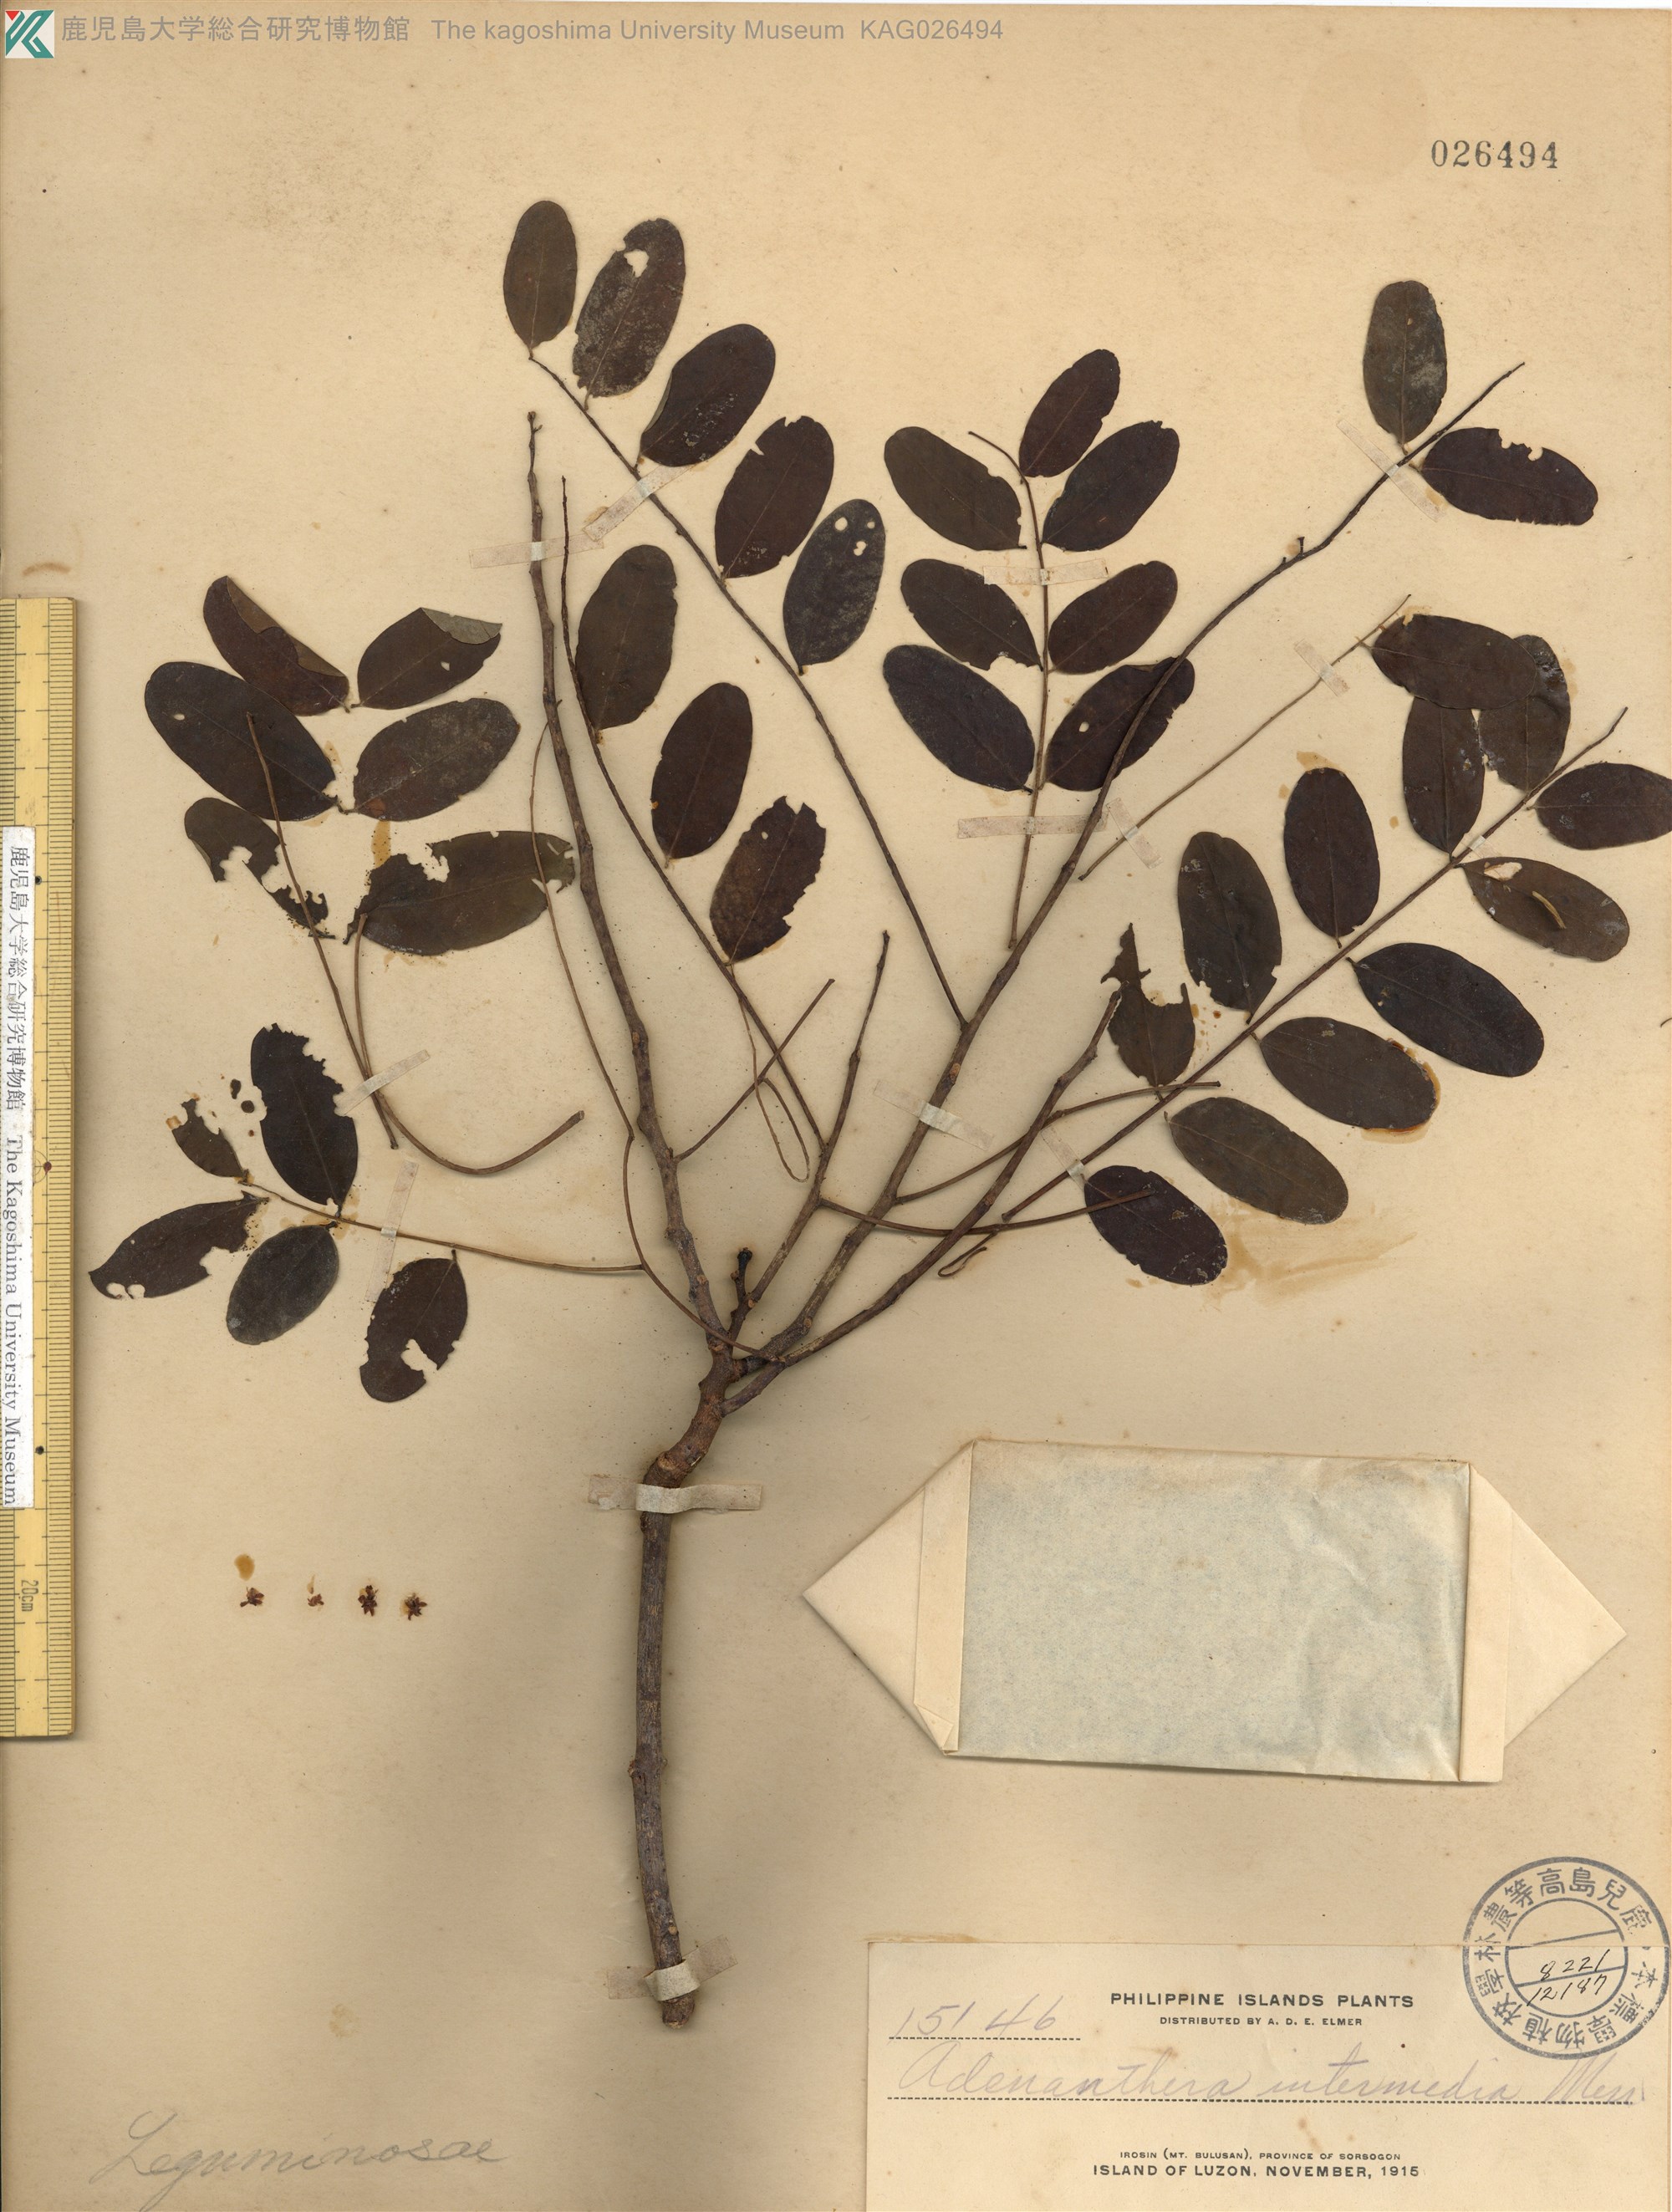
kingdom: Plantae
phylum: Tracheophyta
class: Magnoliopsida
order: Fabales
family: Fabaceae
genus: Adenanthera
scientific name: Adenanthera intermedia
